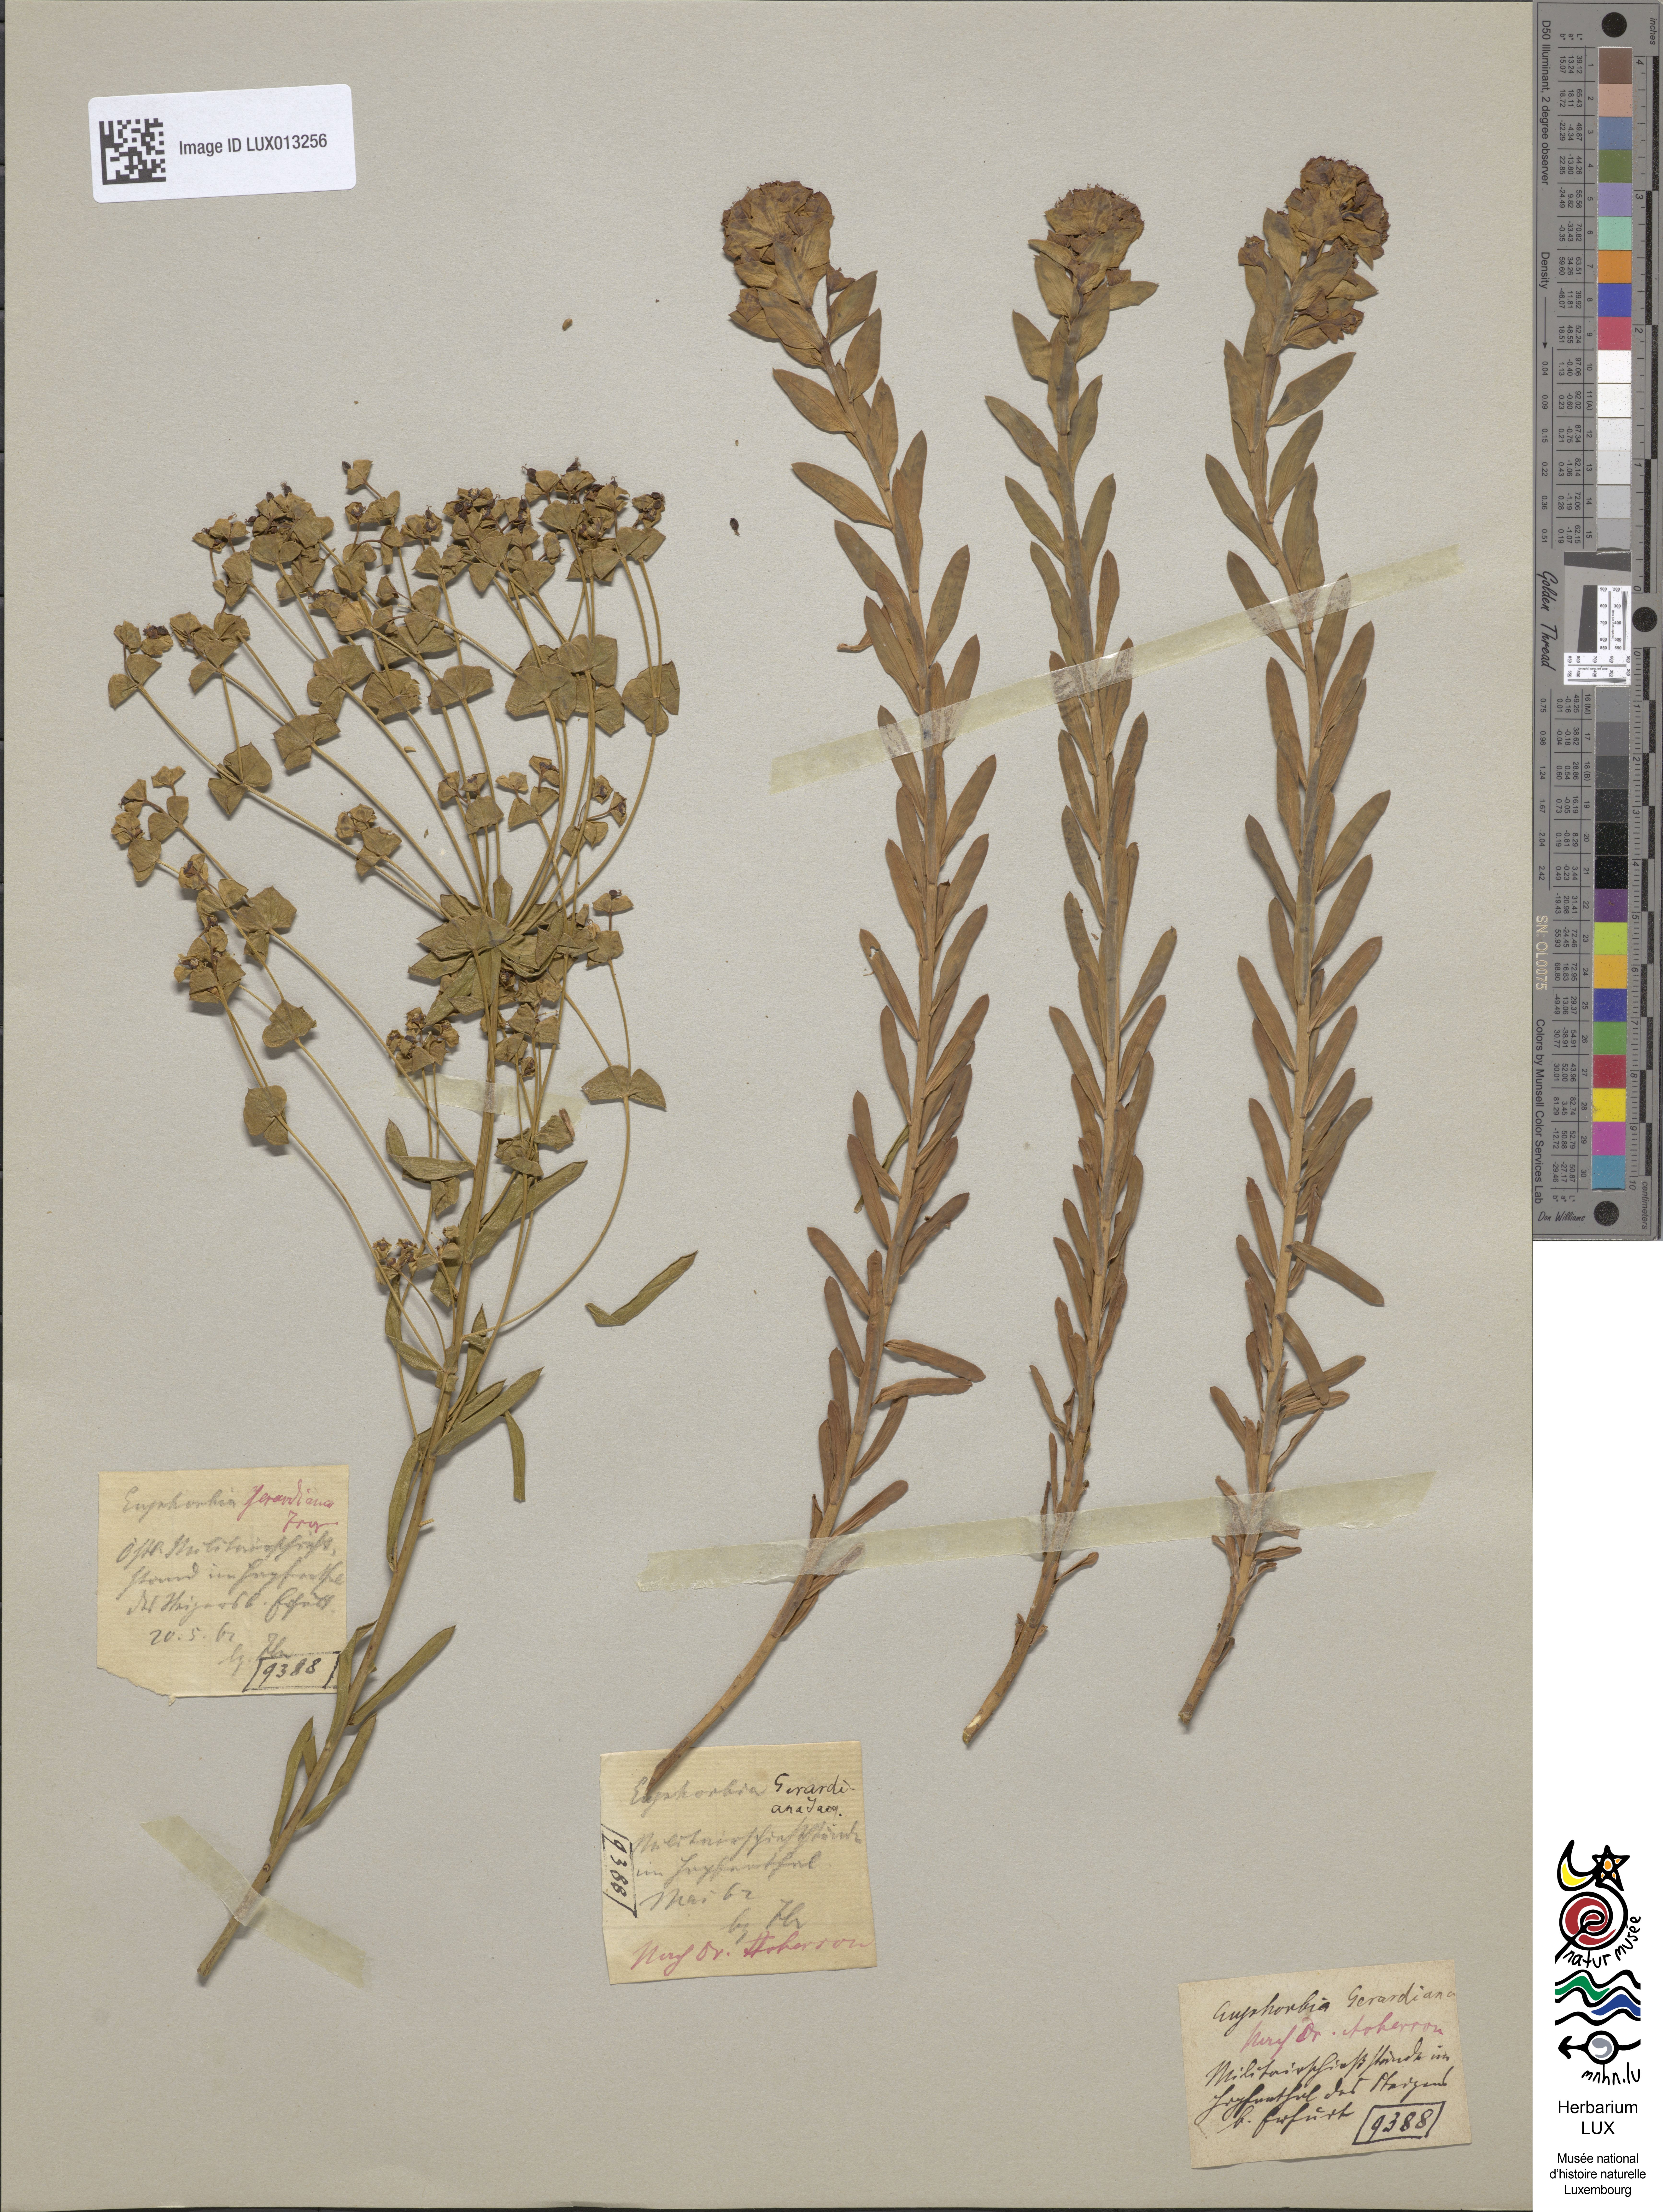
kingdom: Plantae
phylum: Tracheophyta
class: Magnoliopsida
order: Malpighiales
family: Euphorbiaceae
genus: Euphorbia
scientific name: Euphorbia seguieriana
